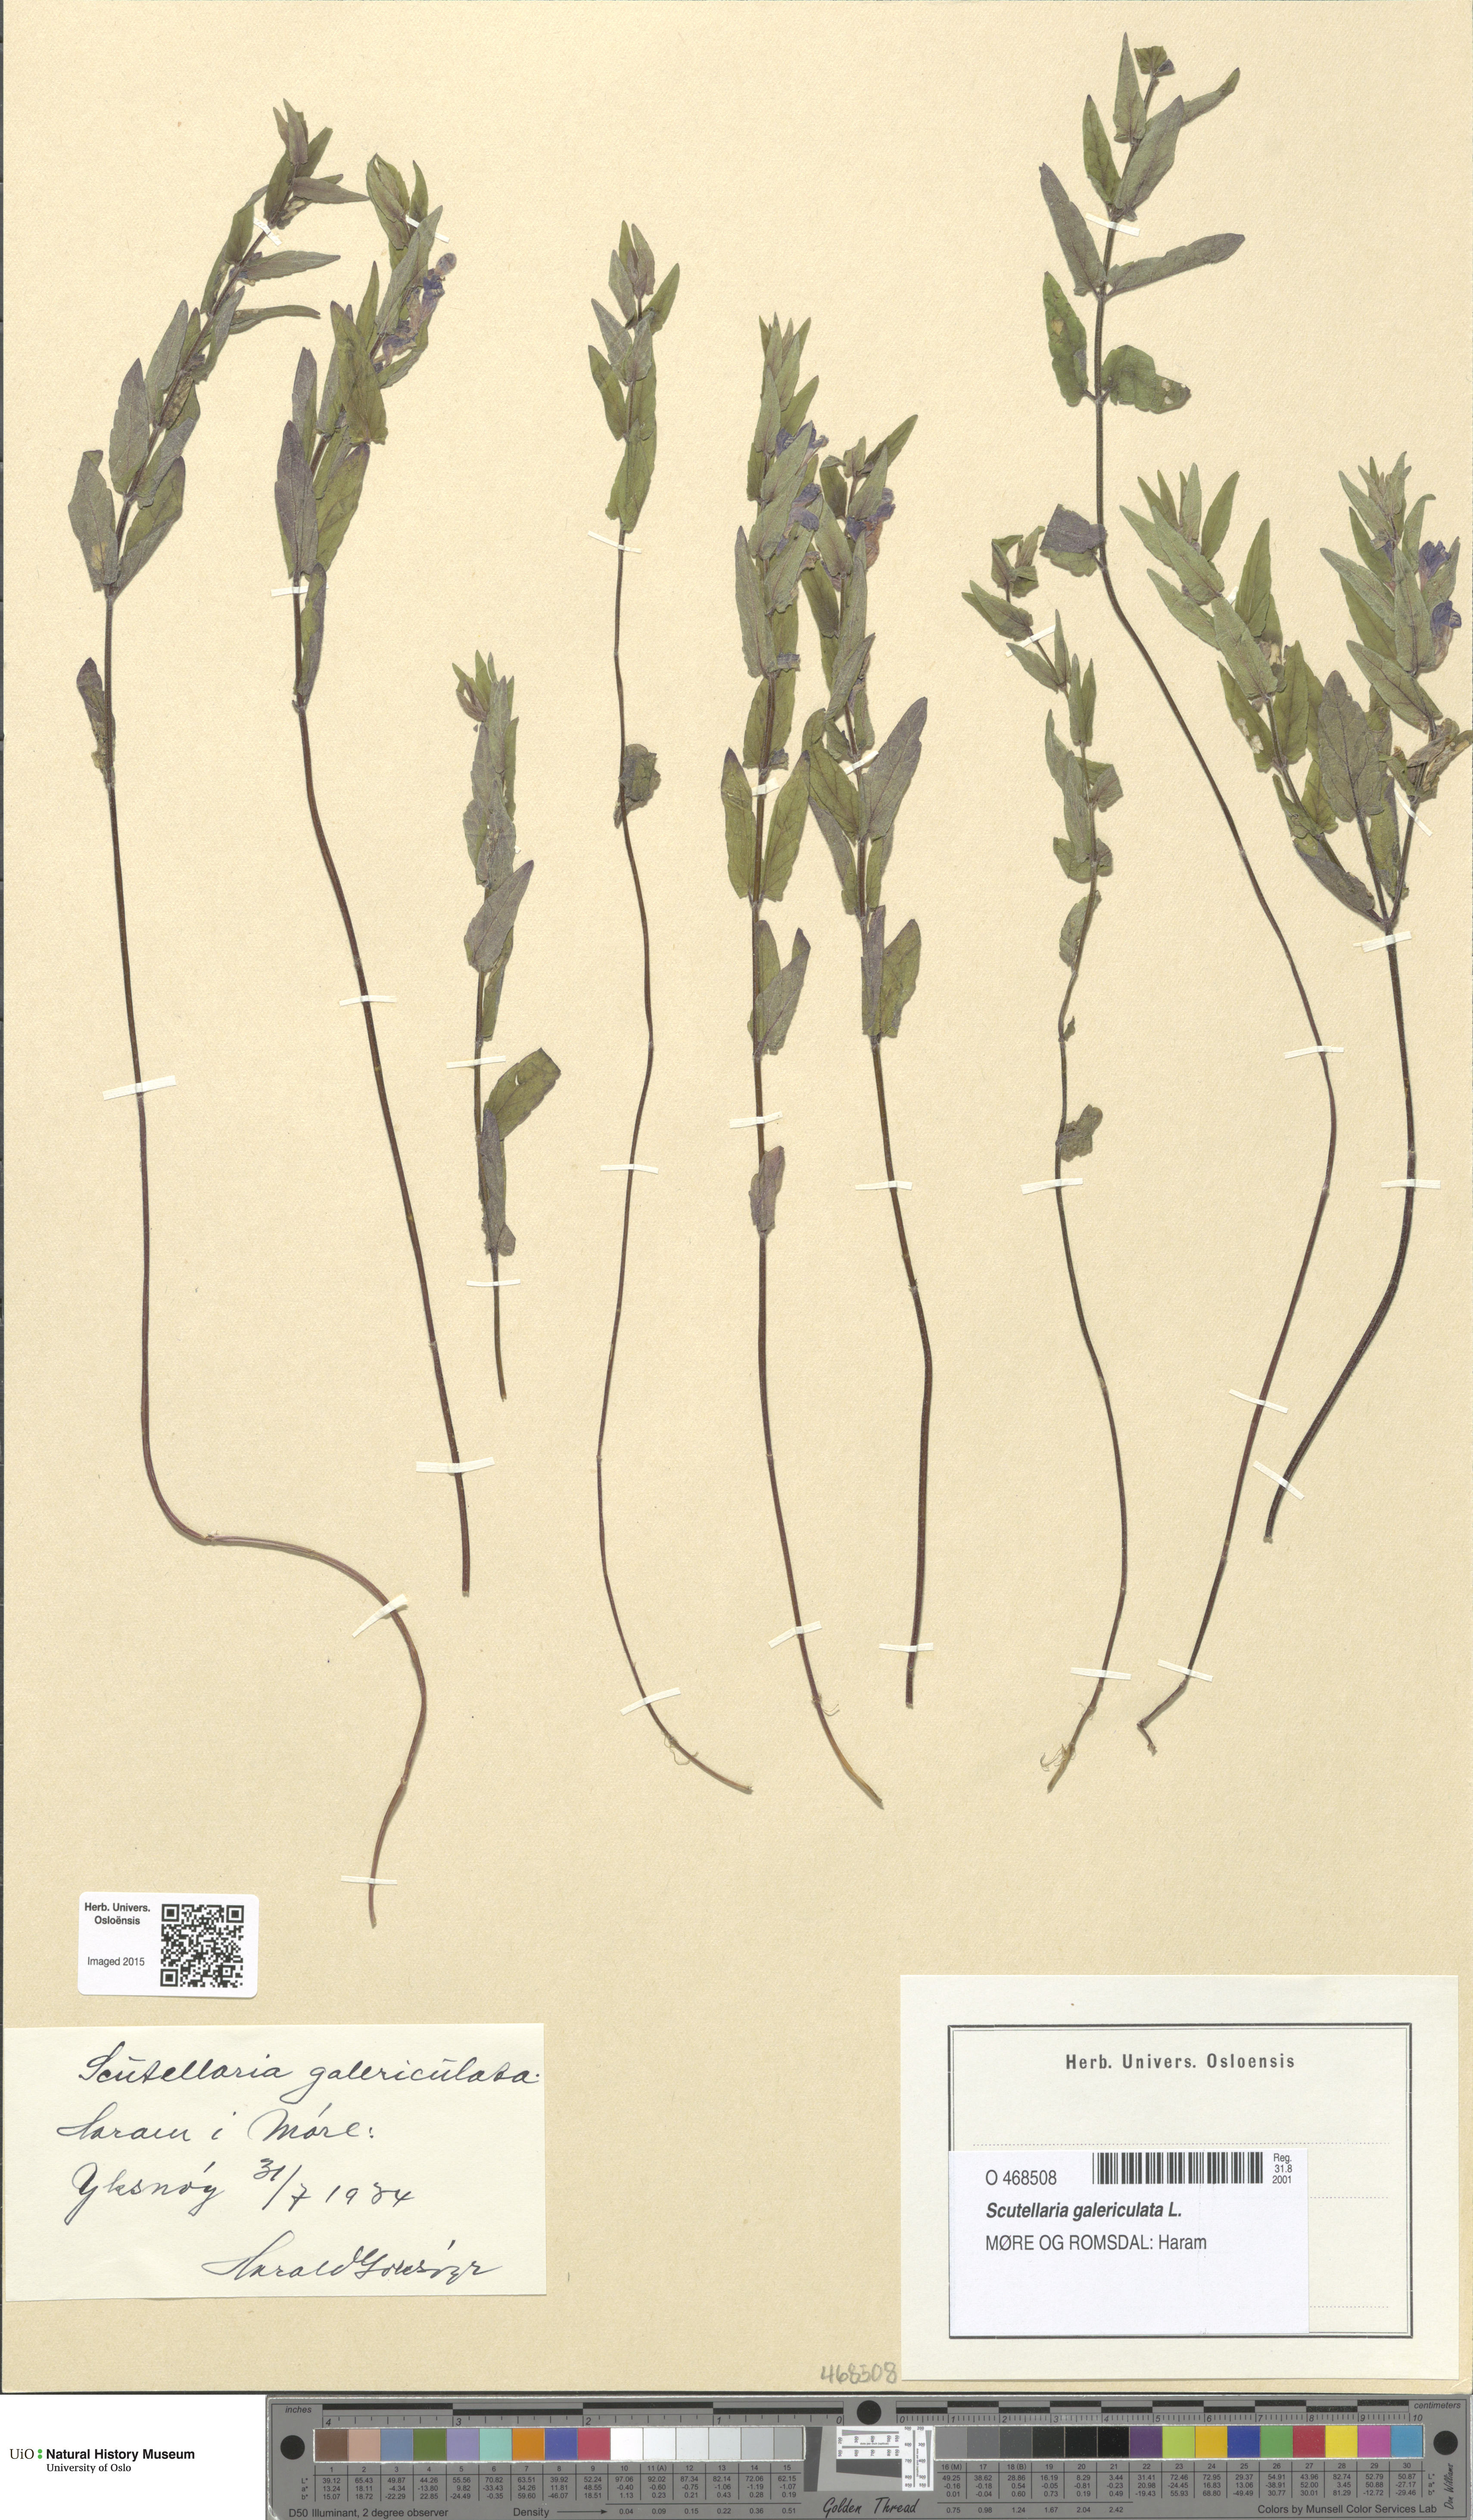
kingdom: Plantae
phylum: Tracheophyta
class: Magnoliopsida
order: Lamiales
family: Lamiaceae
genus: Scutellaria
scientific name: Scutellaria galericulata
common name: Skullcap
